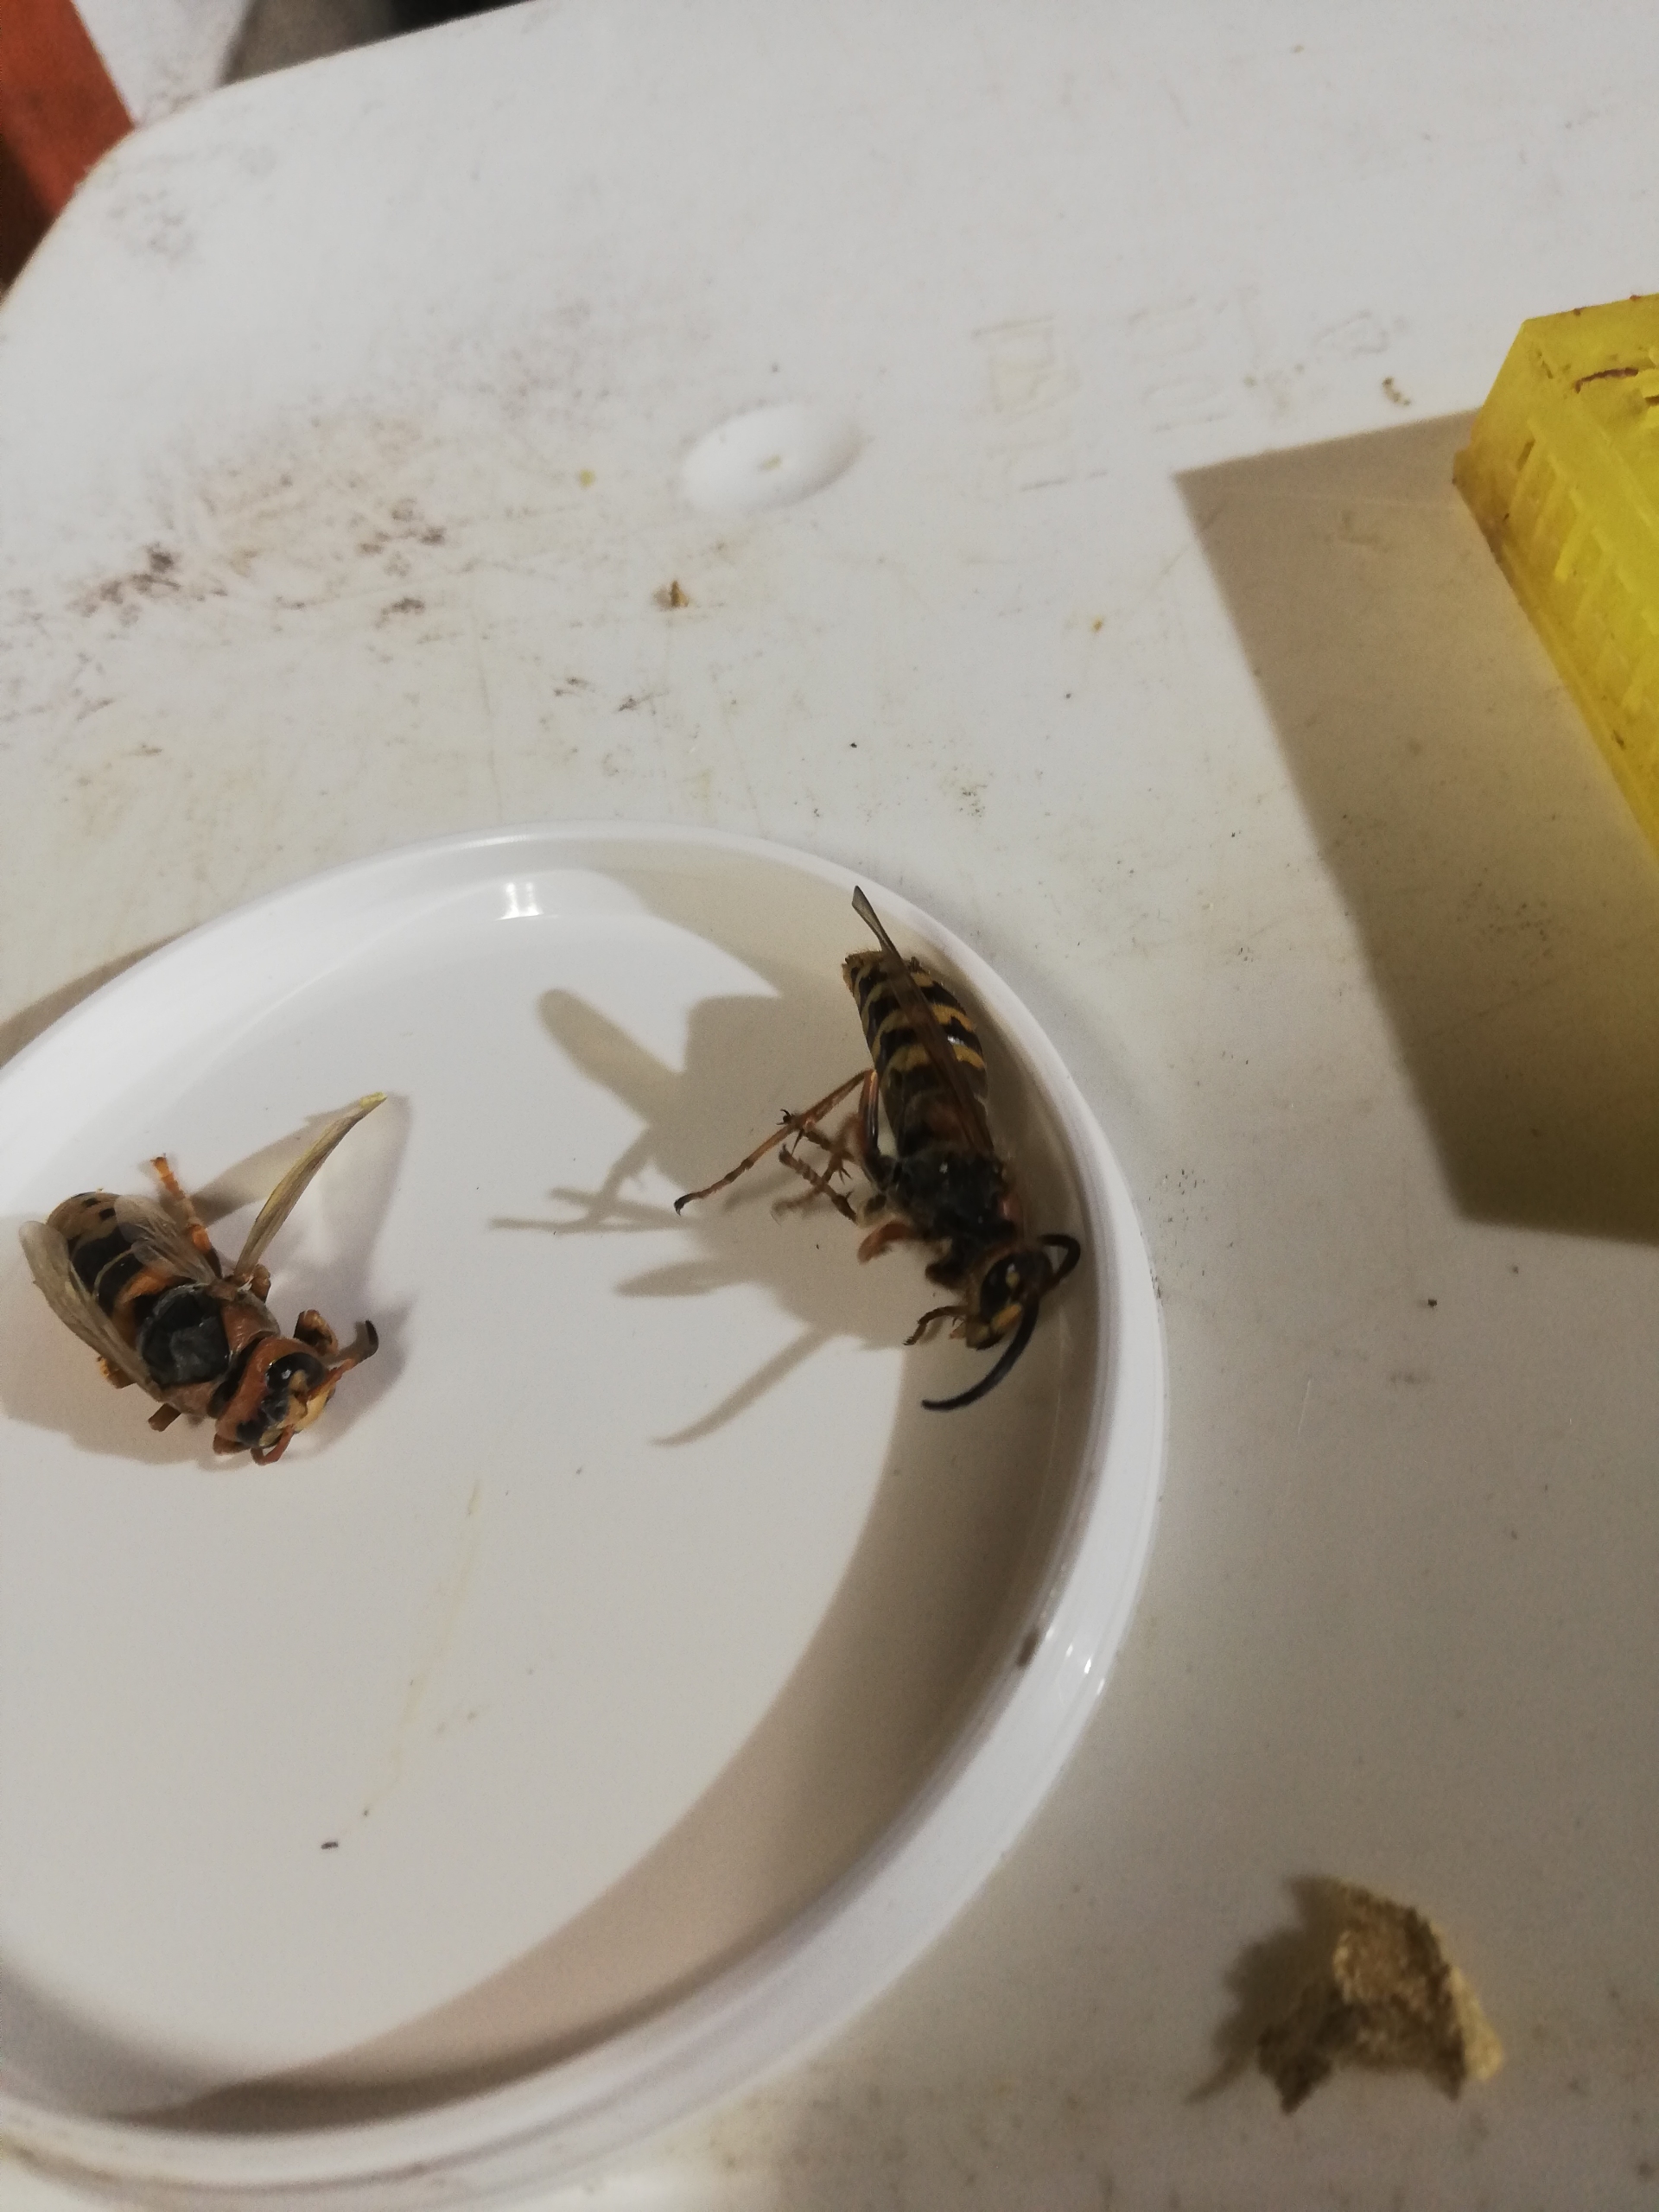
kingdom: Animalia
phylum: Arthropoda
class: Insecta
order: Hymenoptera
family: Vespidae
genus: Vespa
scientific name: Vespa crabro
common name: Stor gedehams
